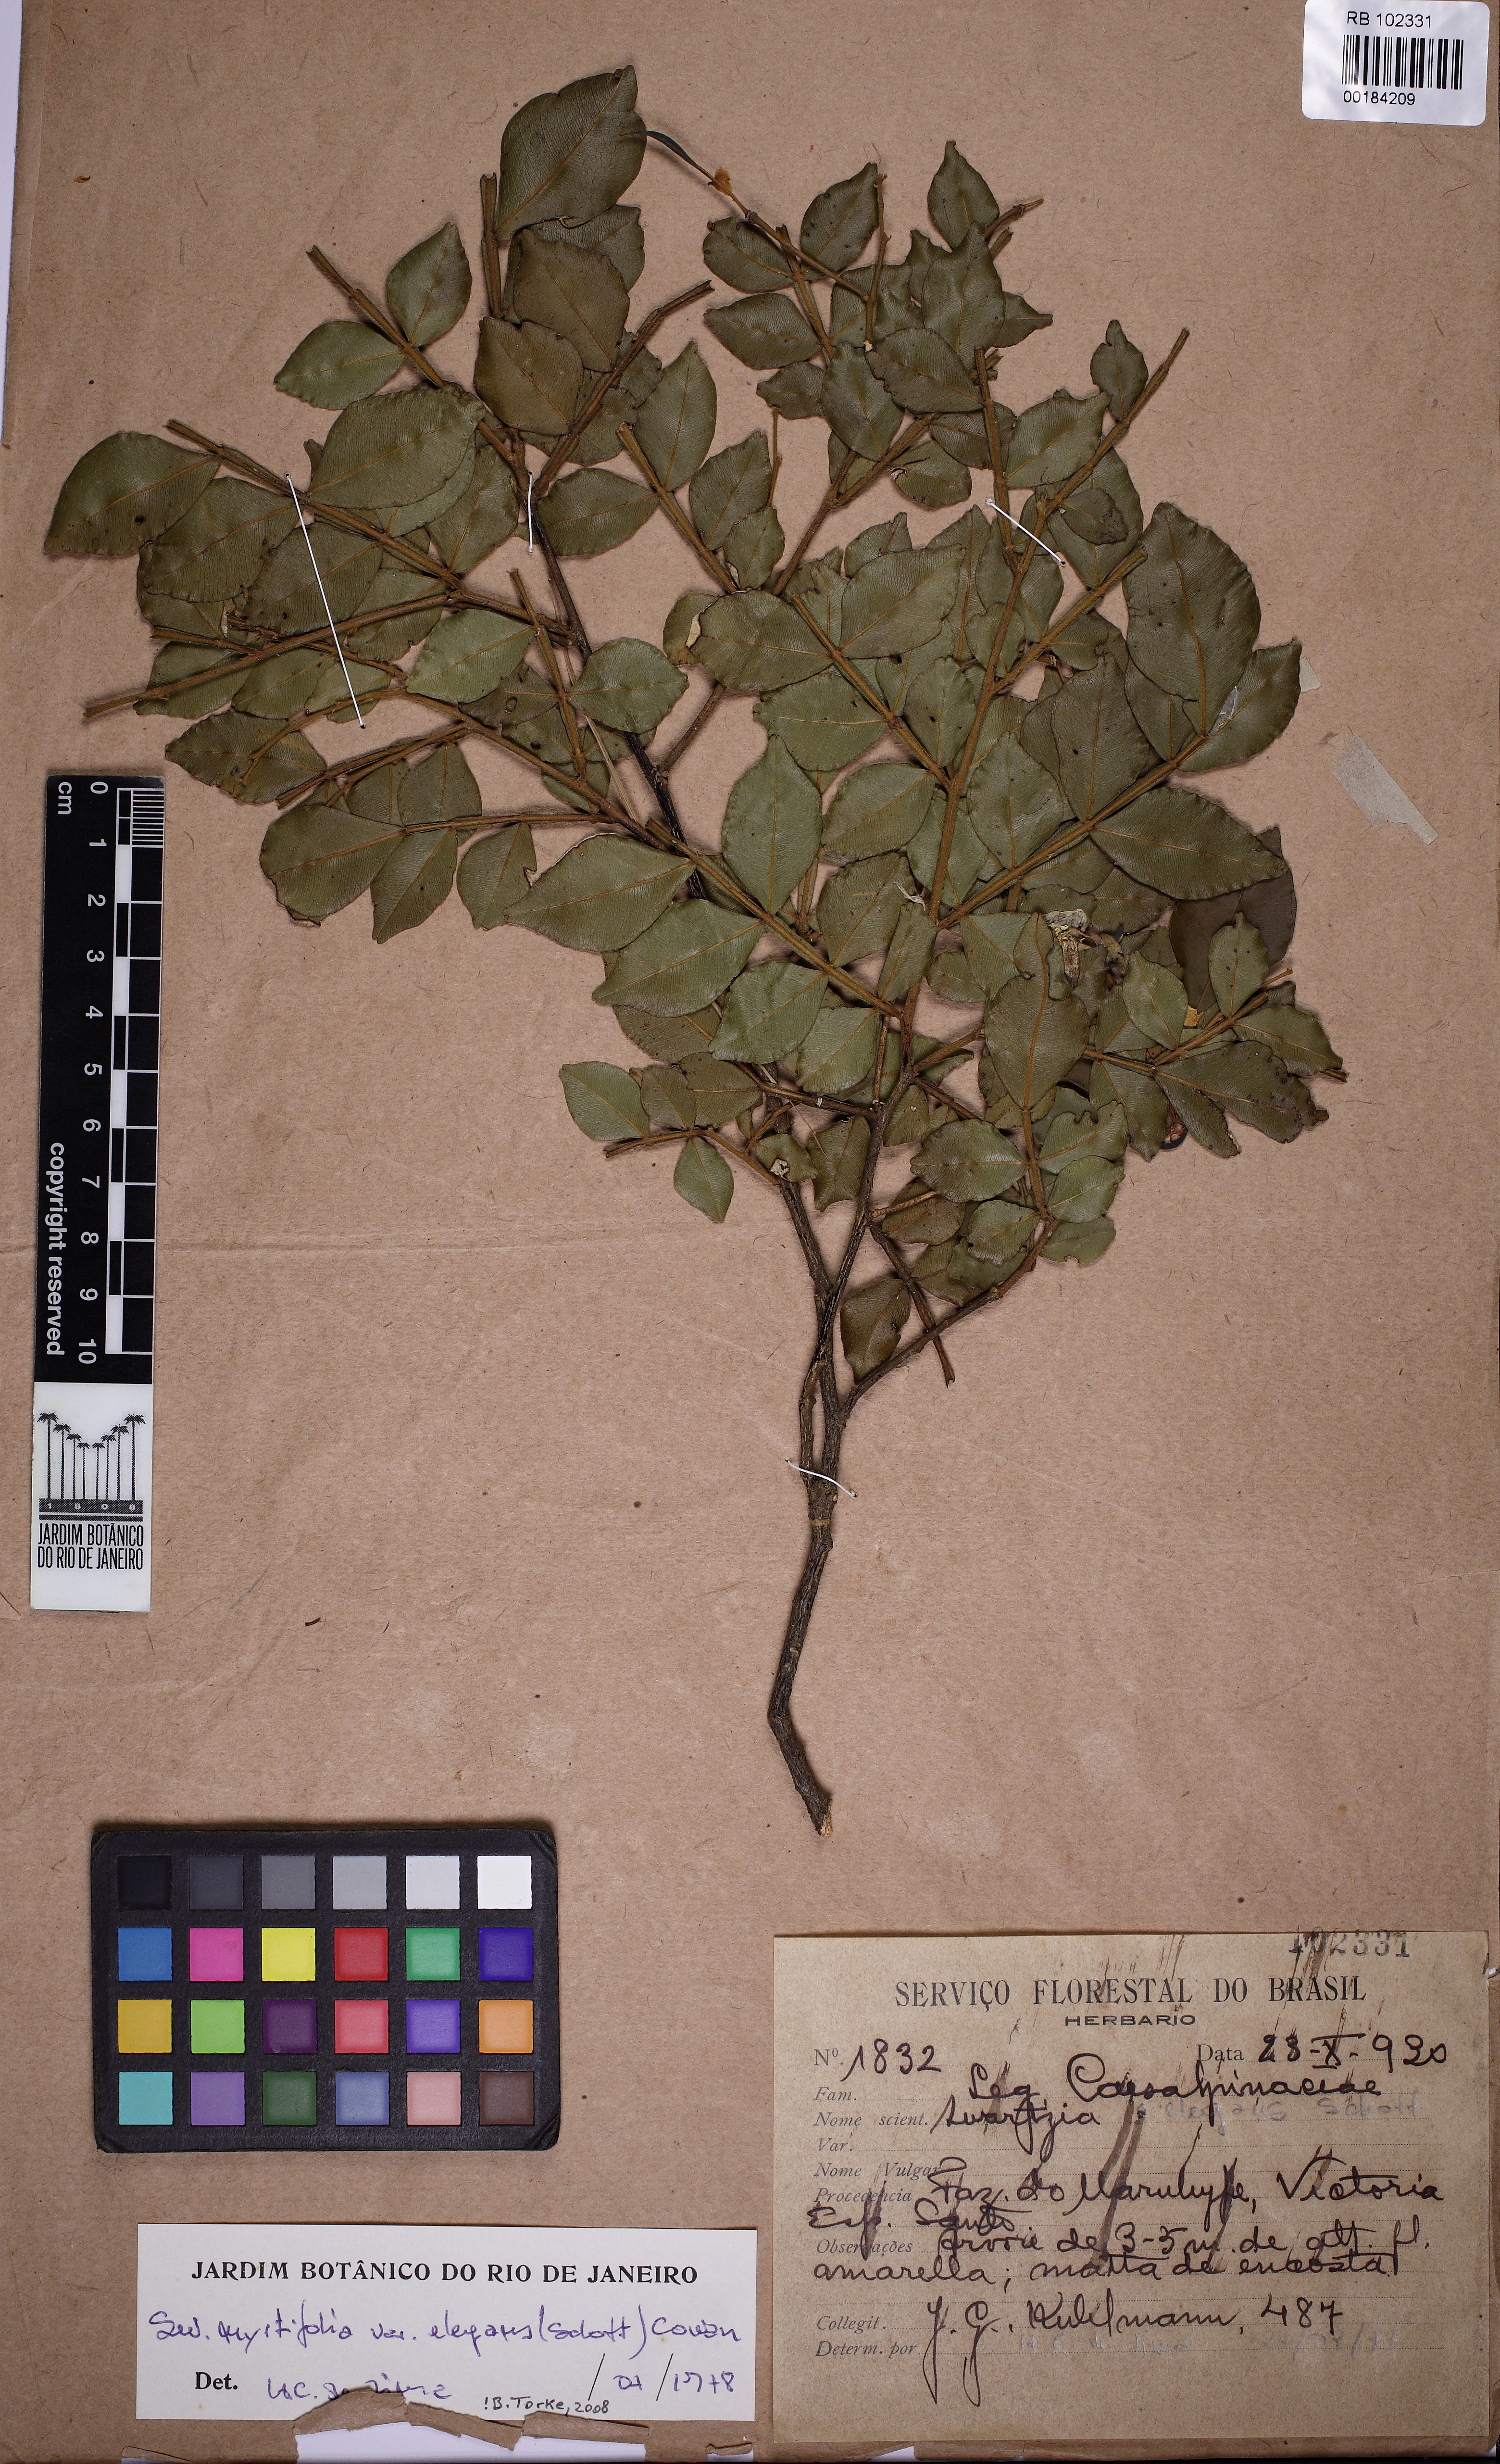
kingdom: Plantae
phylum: Tracheophyta
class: Magnoliopsida
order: Fabales
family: Fabaceae
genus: Swartzia
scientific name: Swartzia myrtifolia
